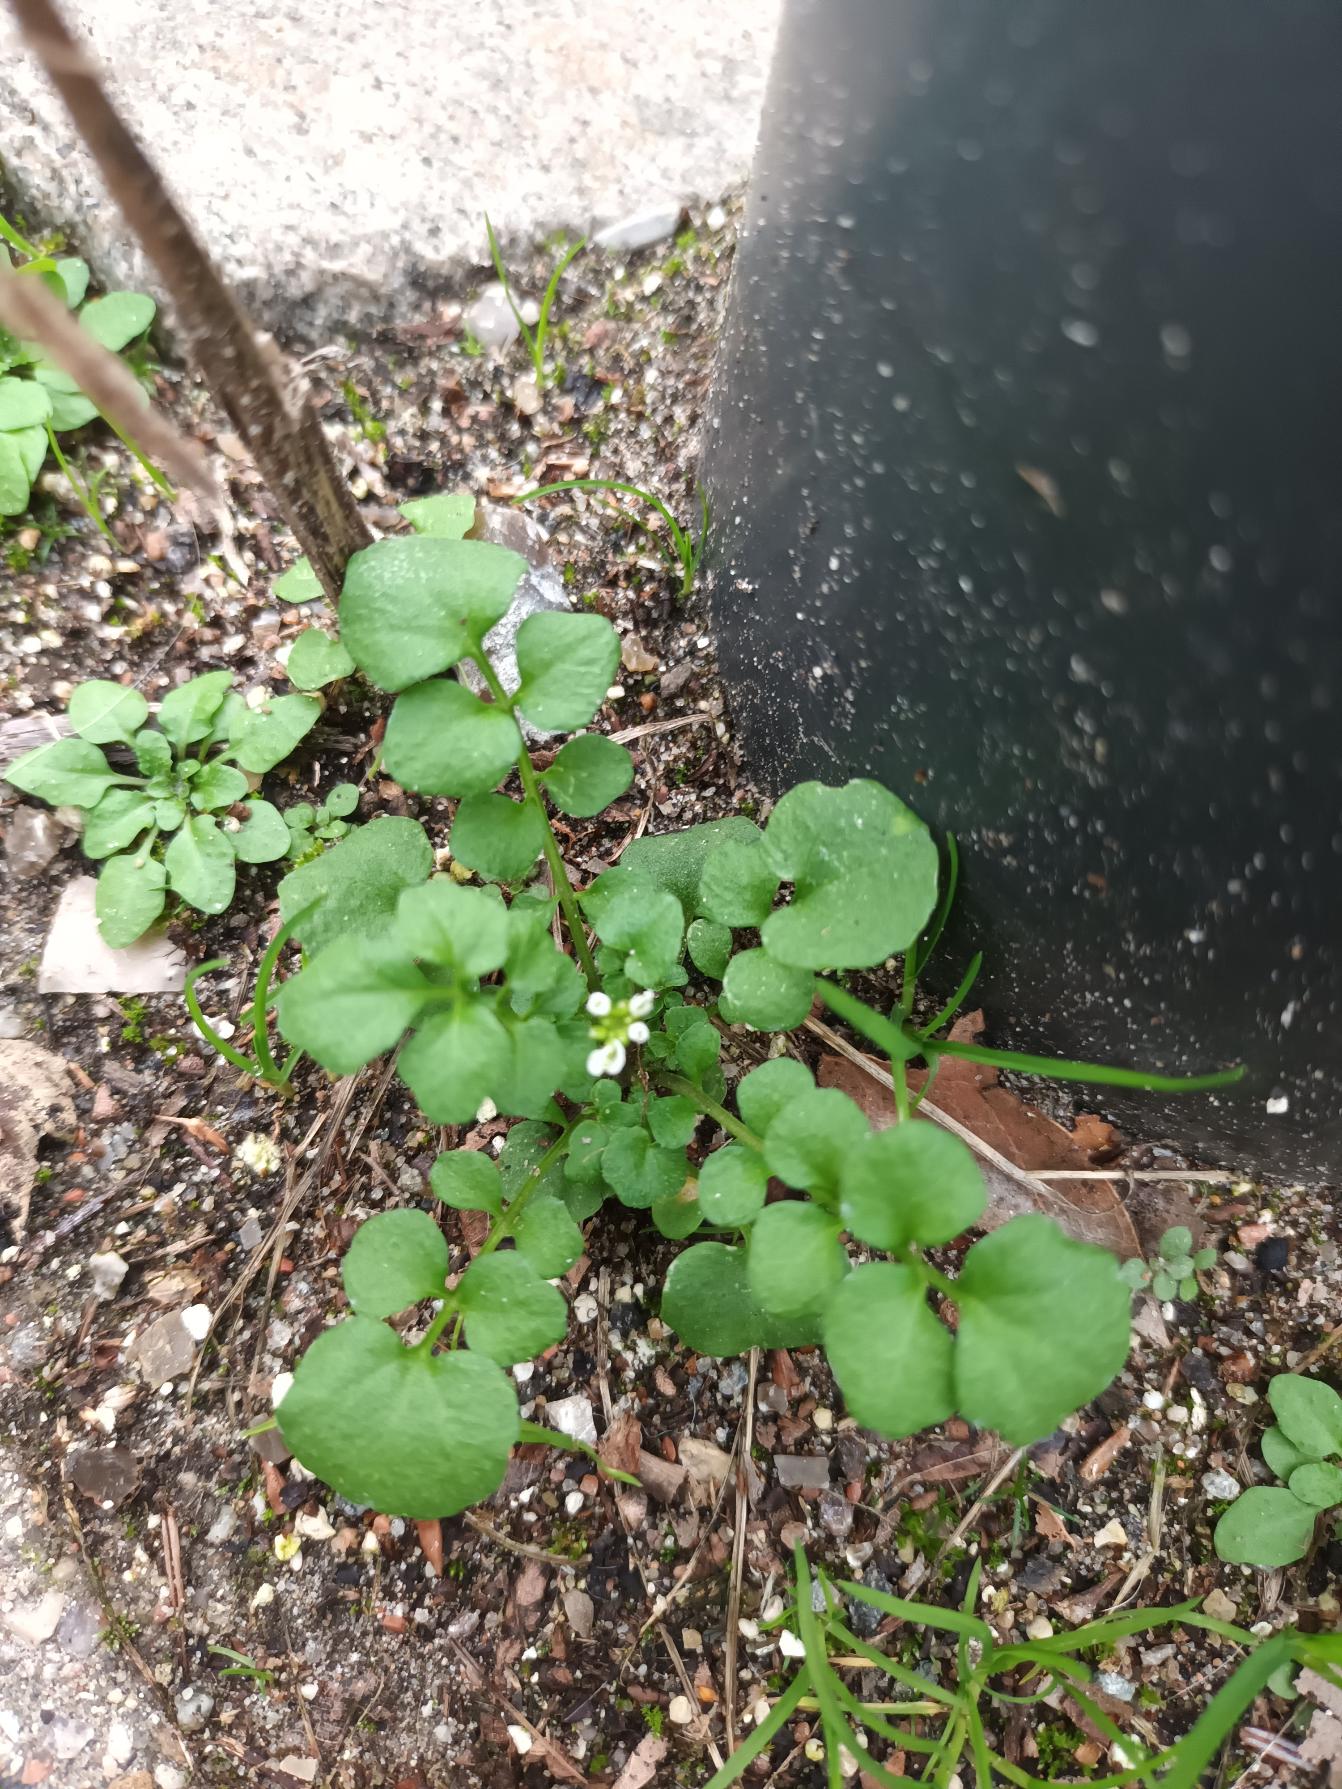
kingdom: Plantae
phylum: Tracheophyta
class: Magnoliopsida
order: Brassicales
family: Brassicaceae
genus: Cardamine
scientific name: Cardamine hirsuta
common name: Roset-springklap
